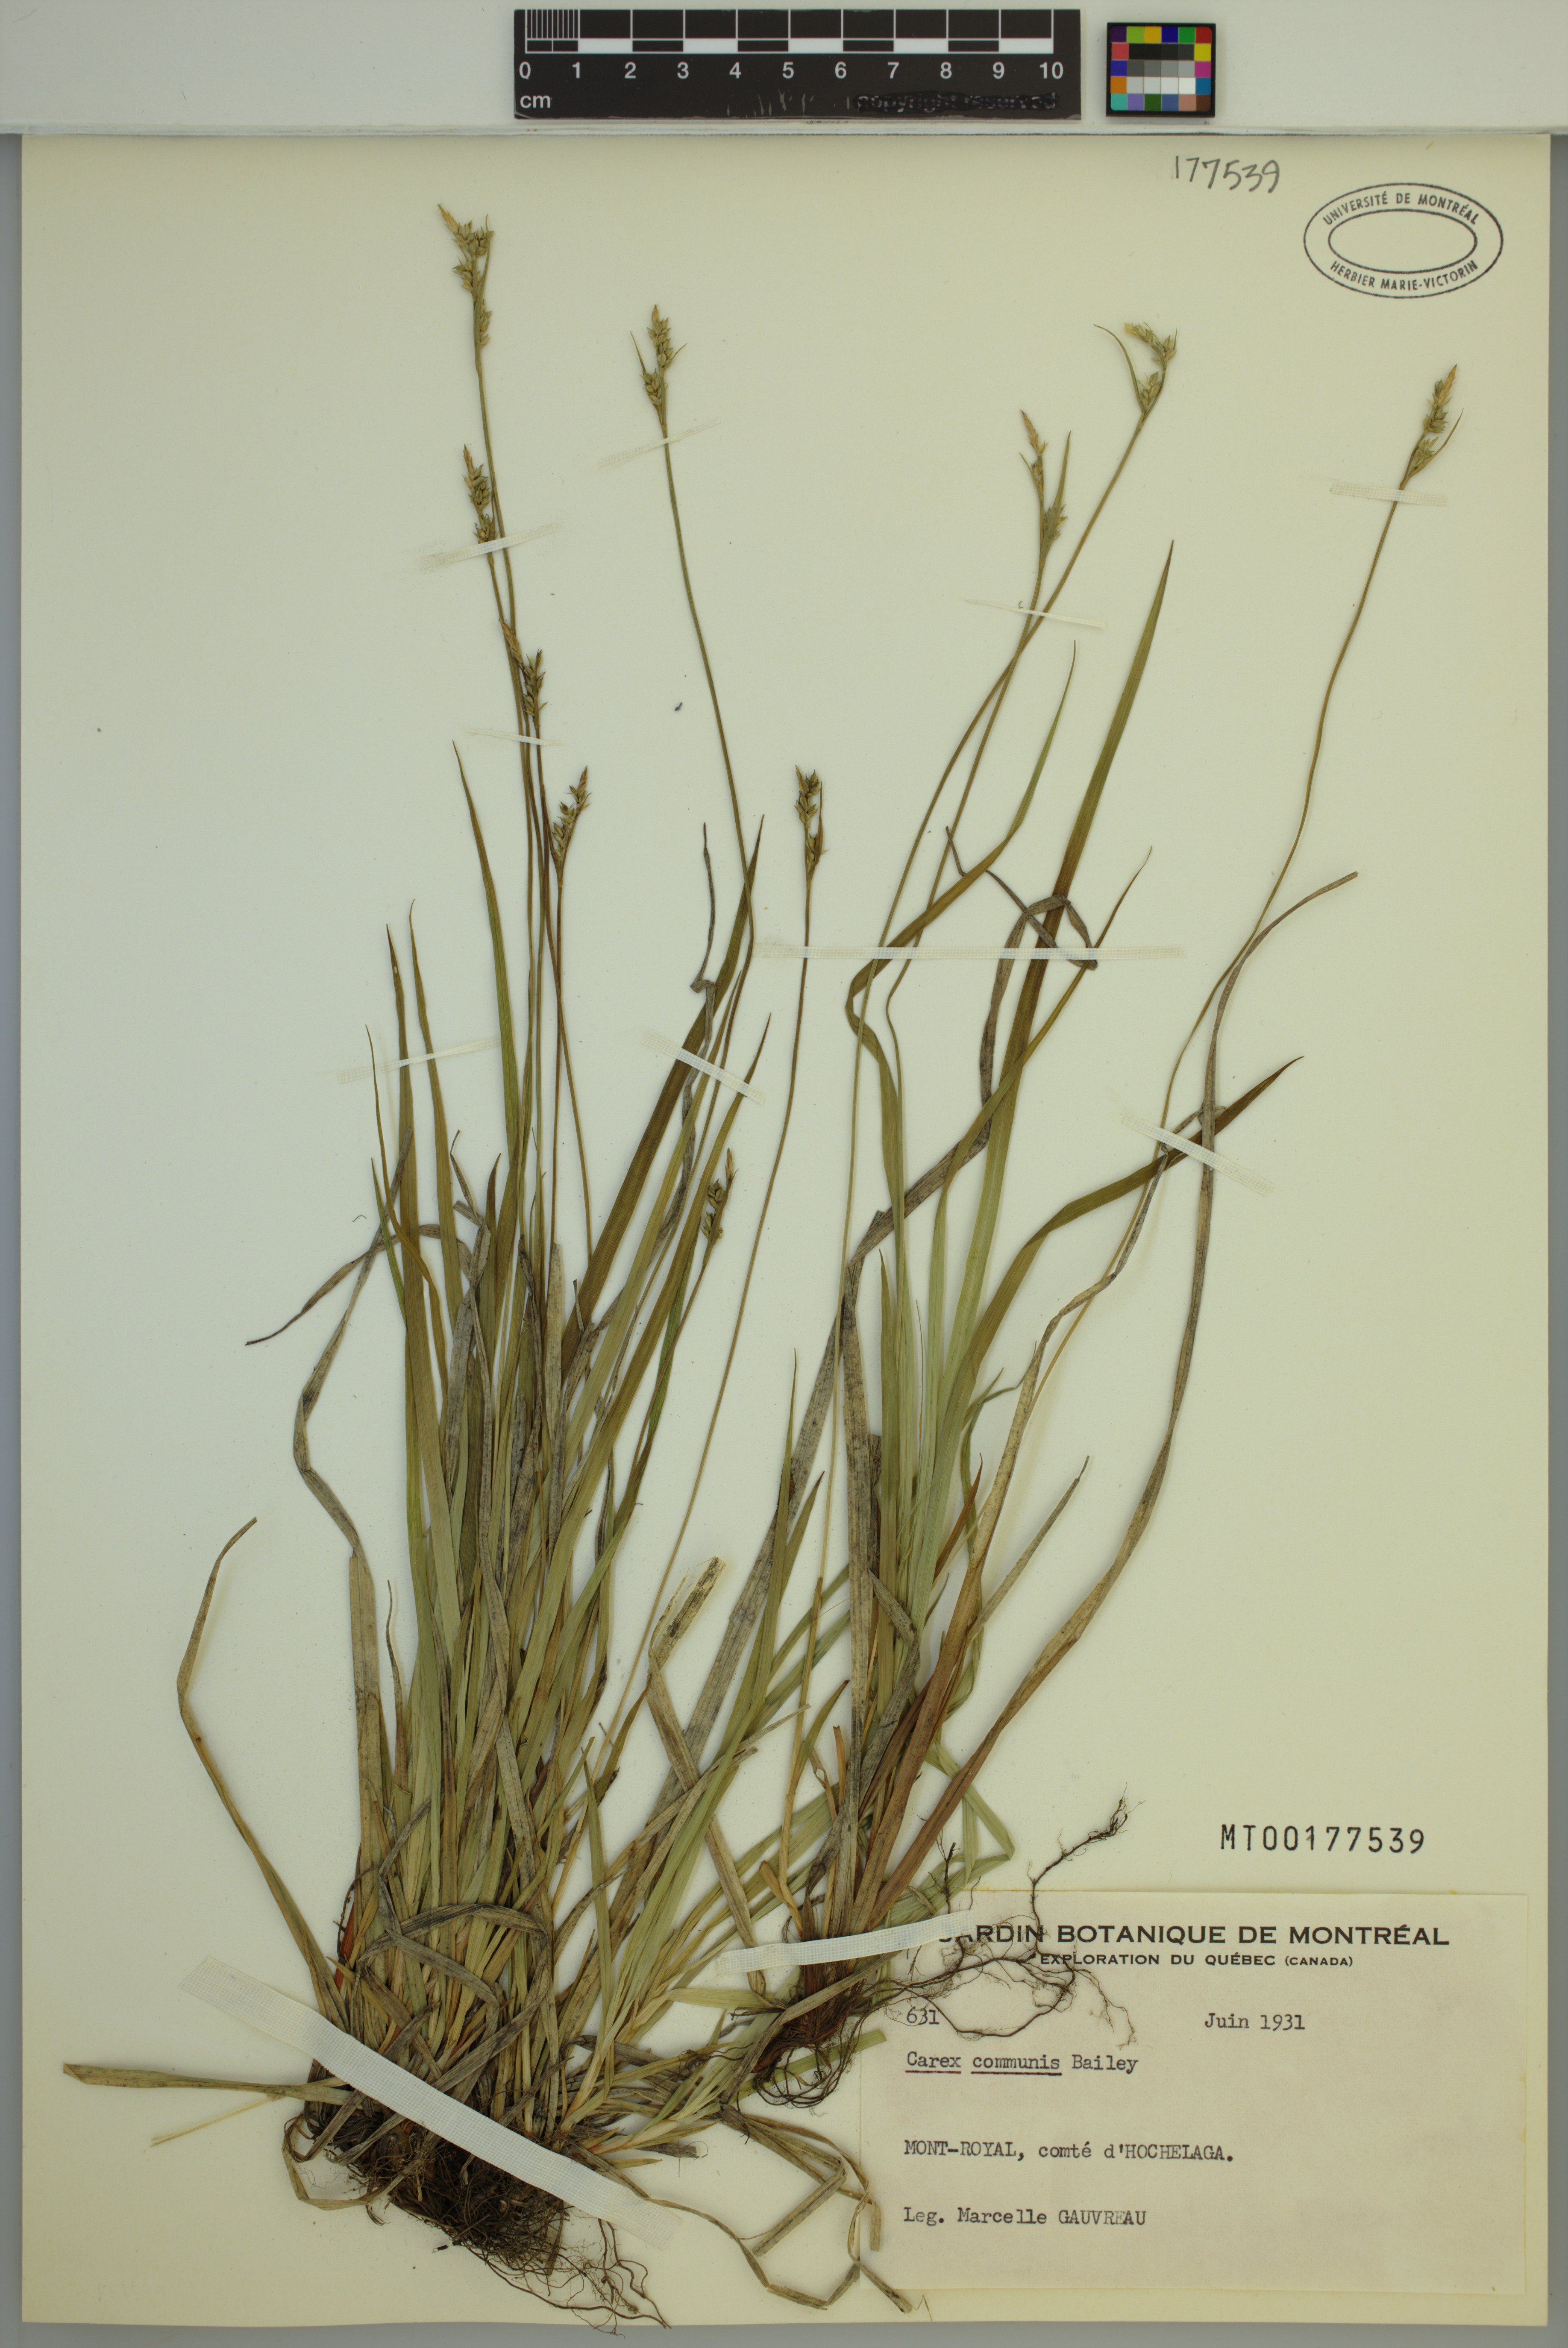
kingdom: Plantae
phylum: Tracheophyta
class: Liliopsida
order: Poales
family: Cyperaceae
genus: Carex
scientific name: Carex communis
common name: Colonial oak sedge
